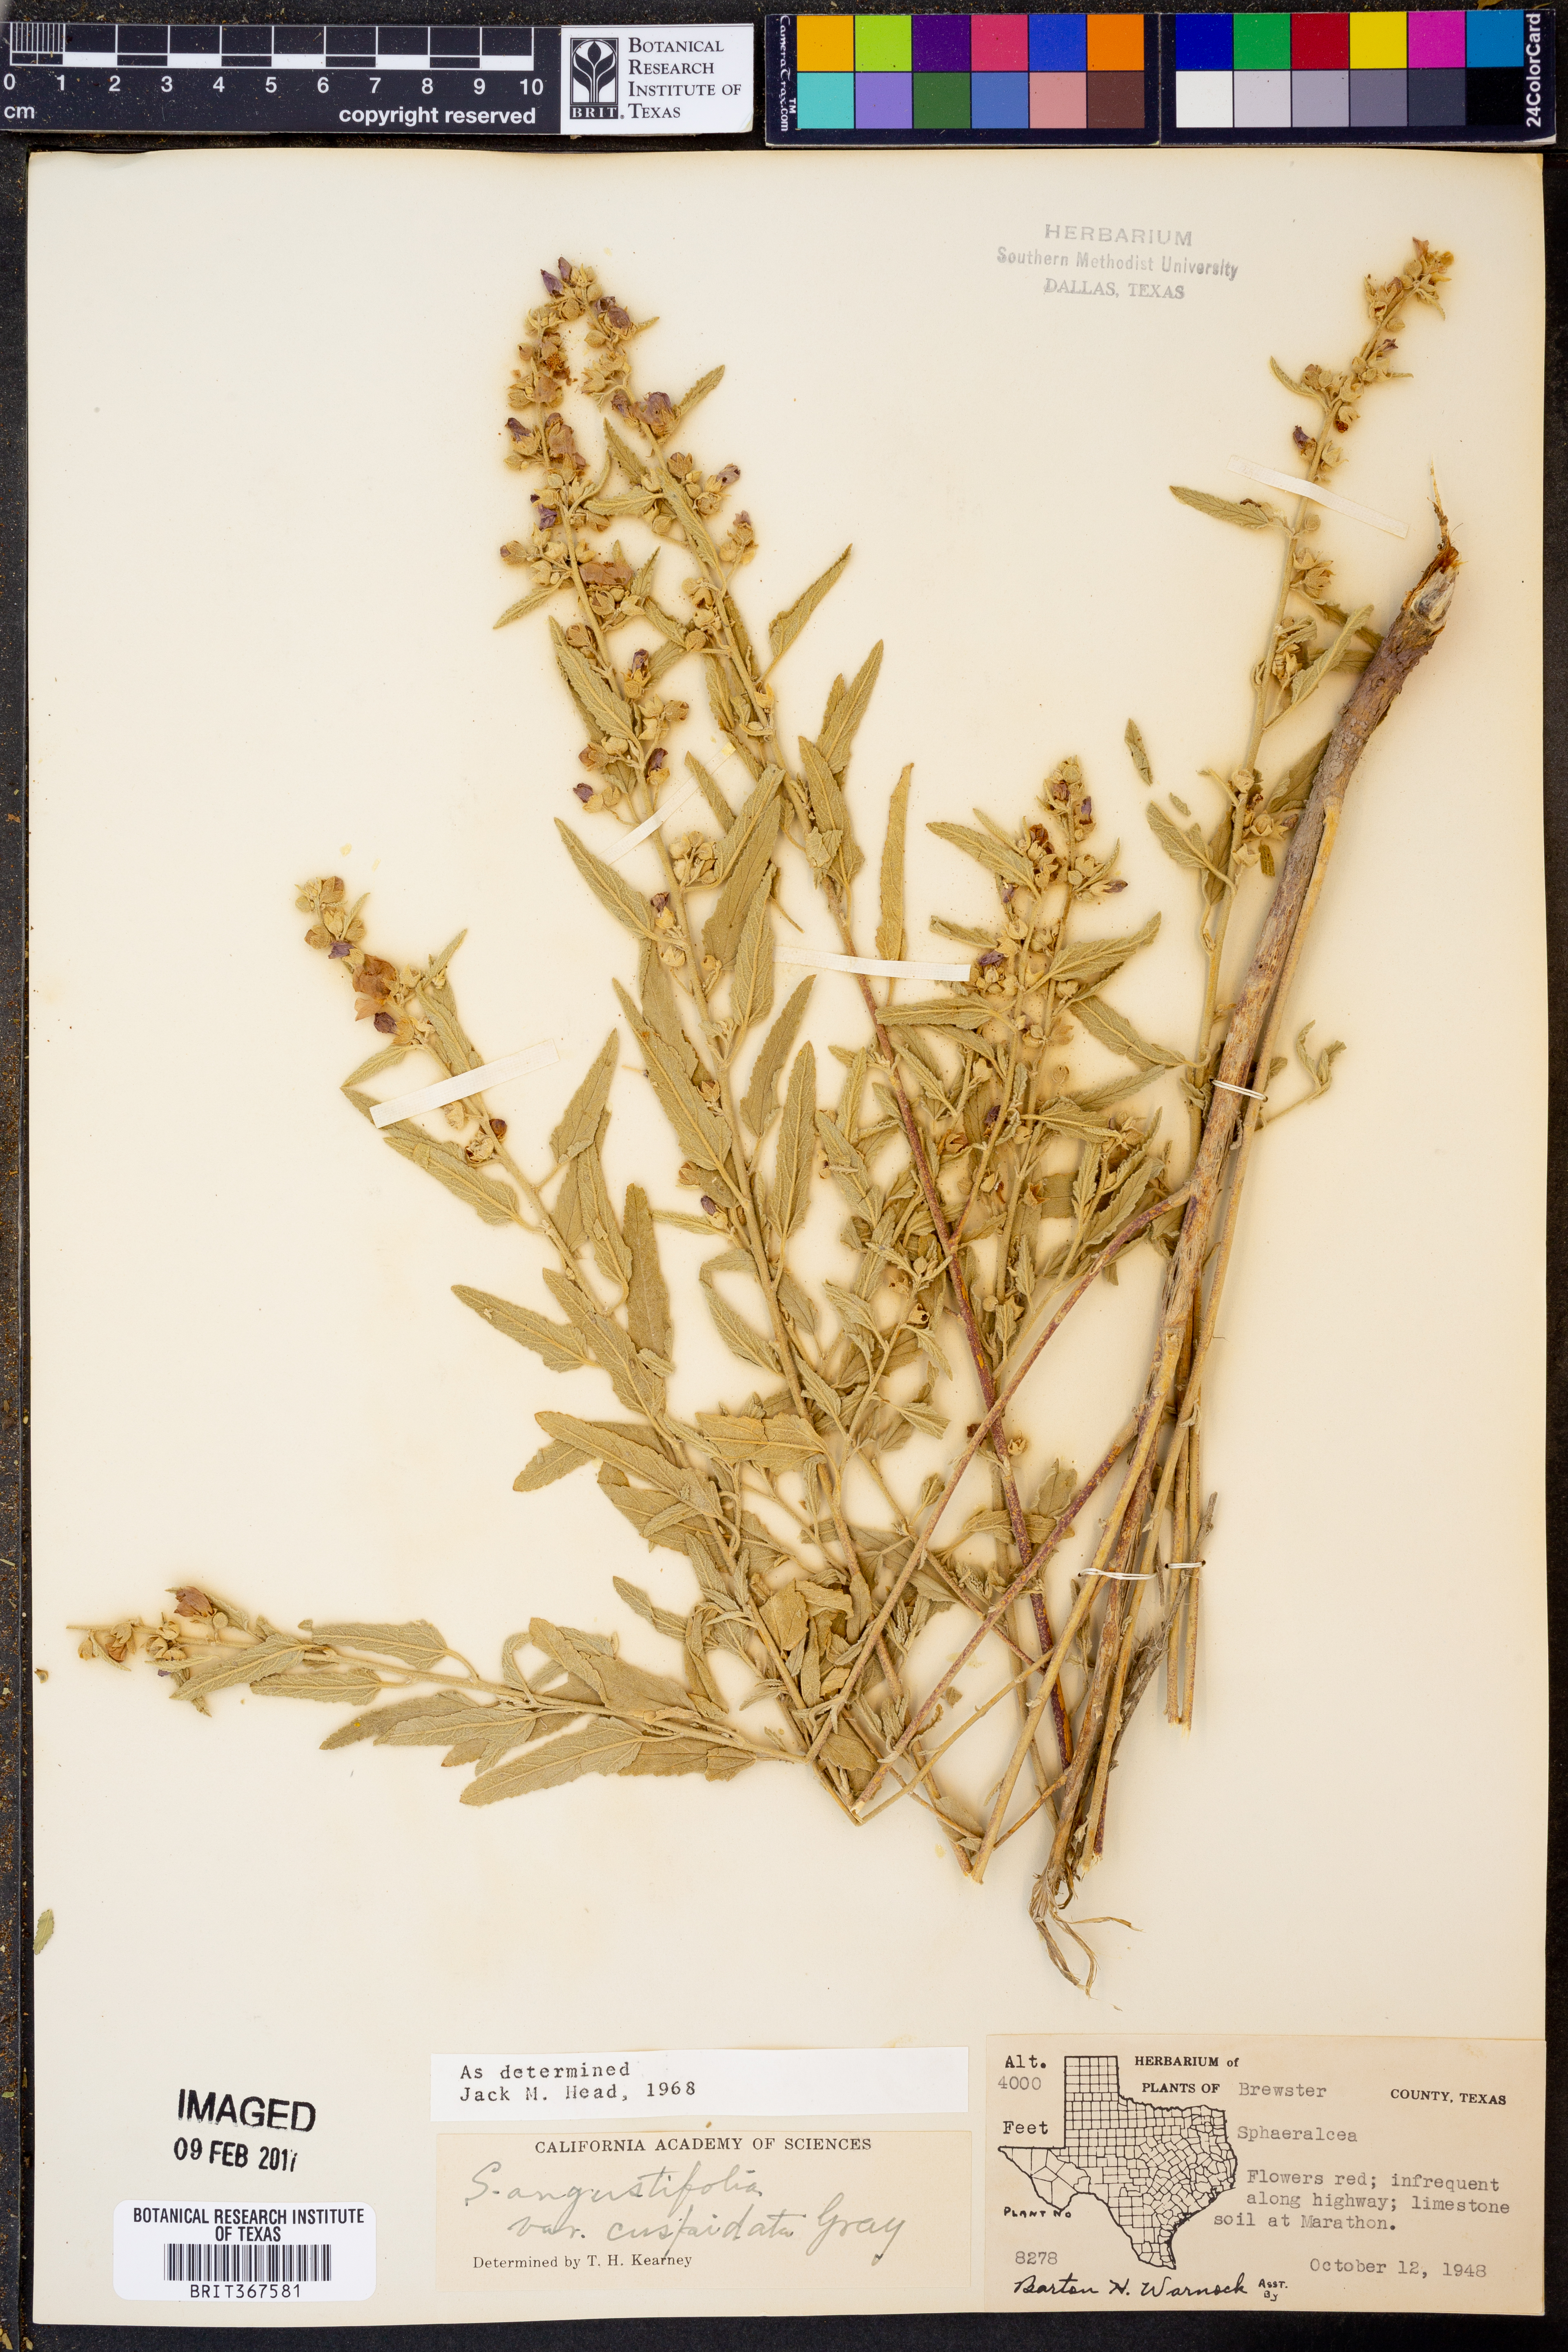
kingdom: Plantae
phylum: Tracheophyta
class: Magnoliopsida
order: Malvales
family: Malvaceae
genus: Sphaeralcea
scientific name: Sphaeralcea angustifolia
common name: Copper globe-mallow
